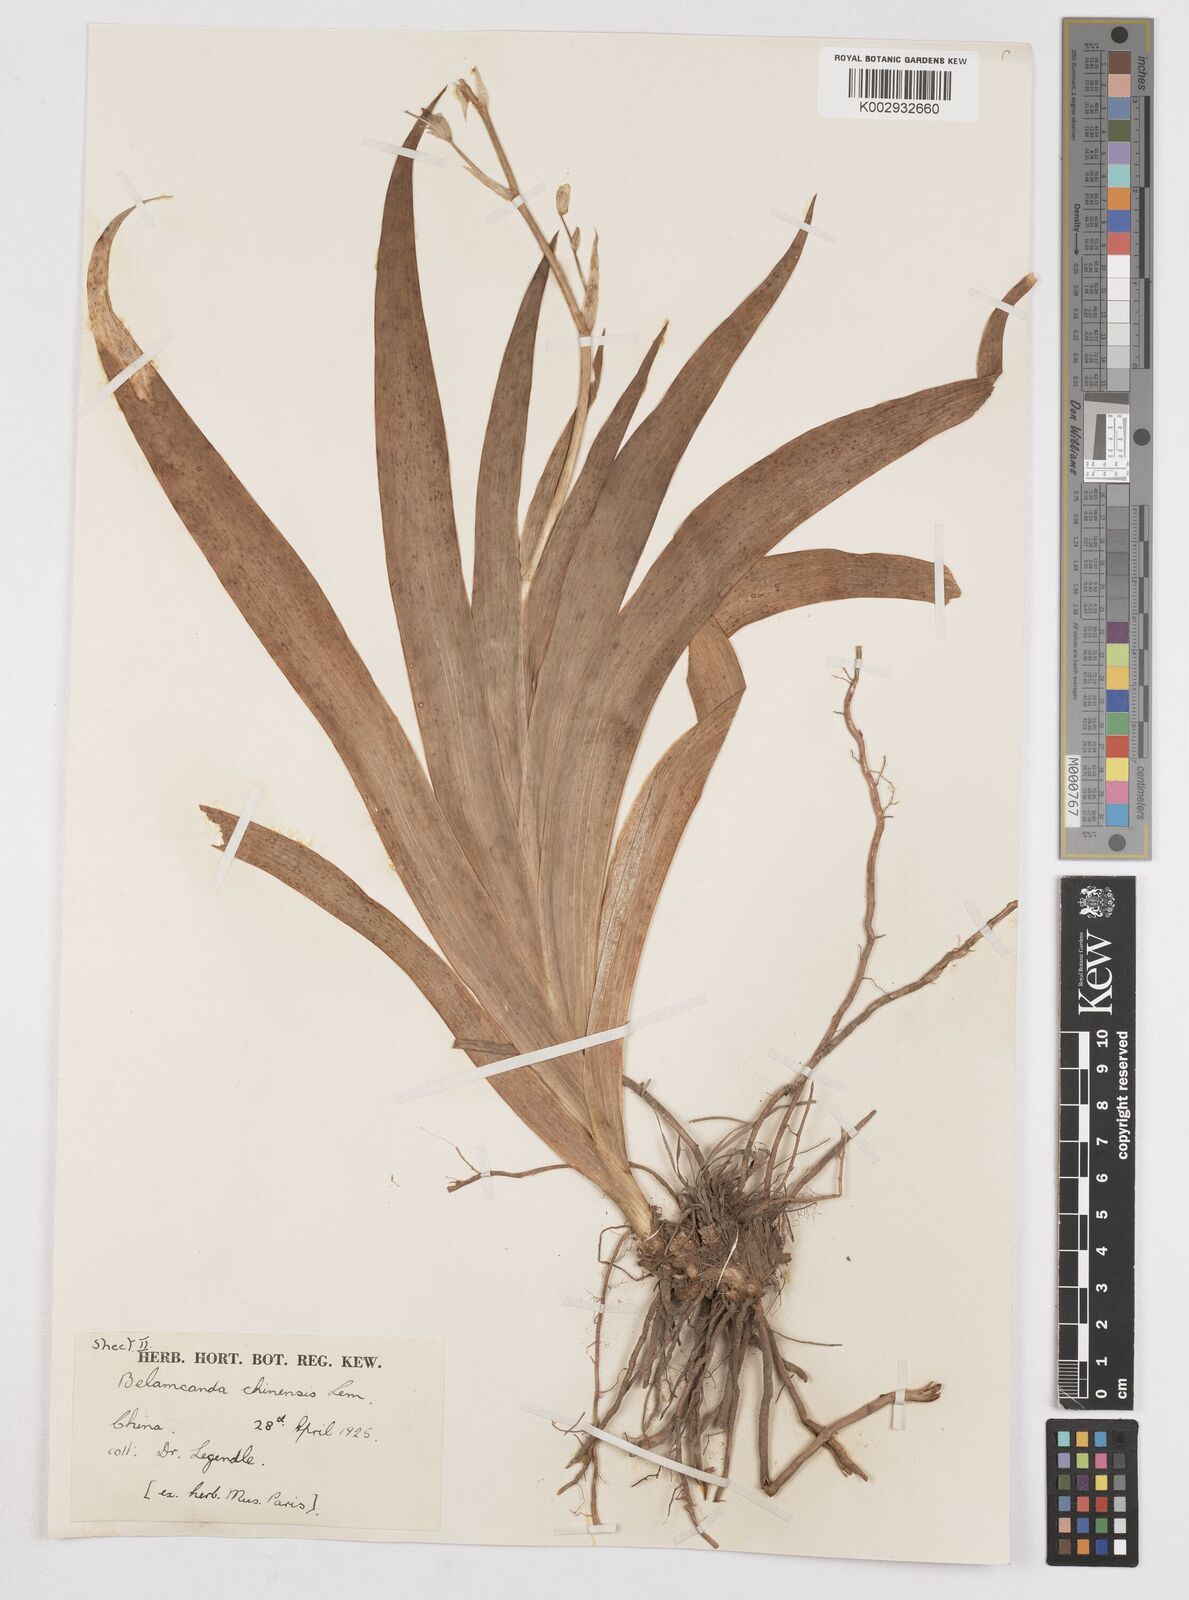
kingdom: Plantae
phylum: Tracheophyta
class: Liliopsida
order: Asparagales
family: Iridaceae
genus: Iris
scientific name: Iris
